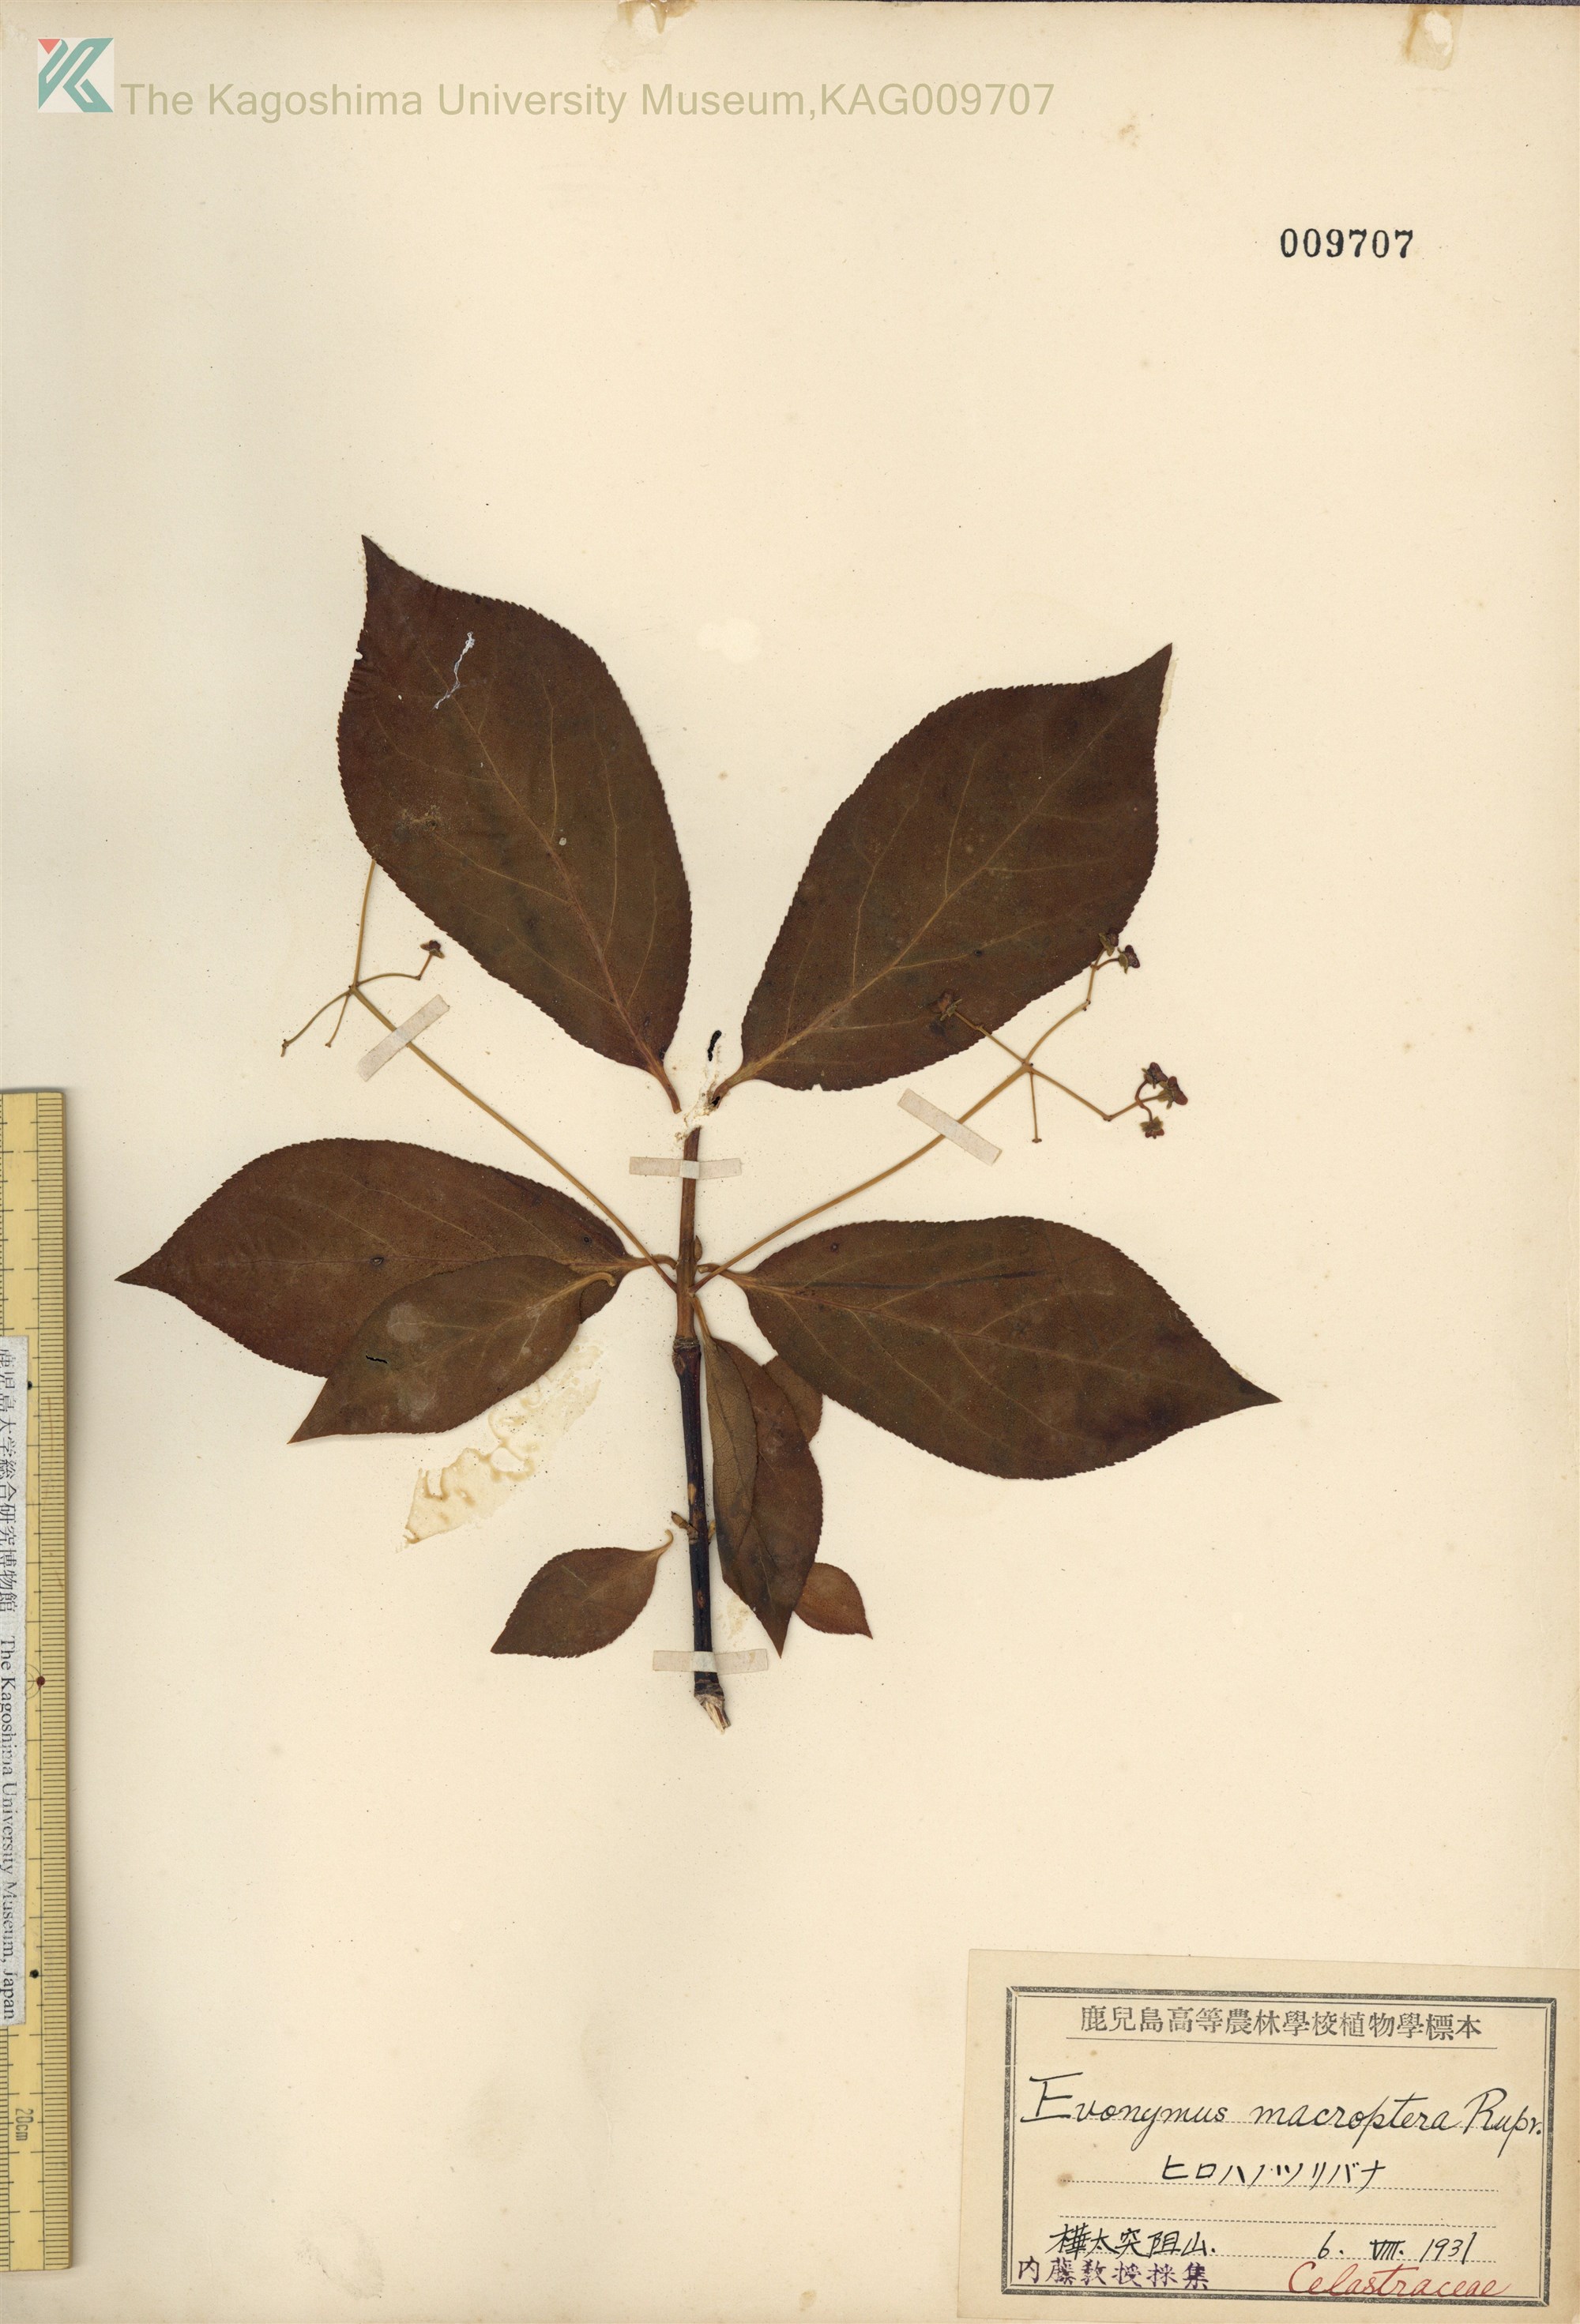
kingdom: Plantae
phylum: Tracheophyta
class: Magnoliopsida
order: Celastrales
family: Celastraceae
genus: Euonymus
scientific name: Euonymus macropterus
